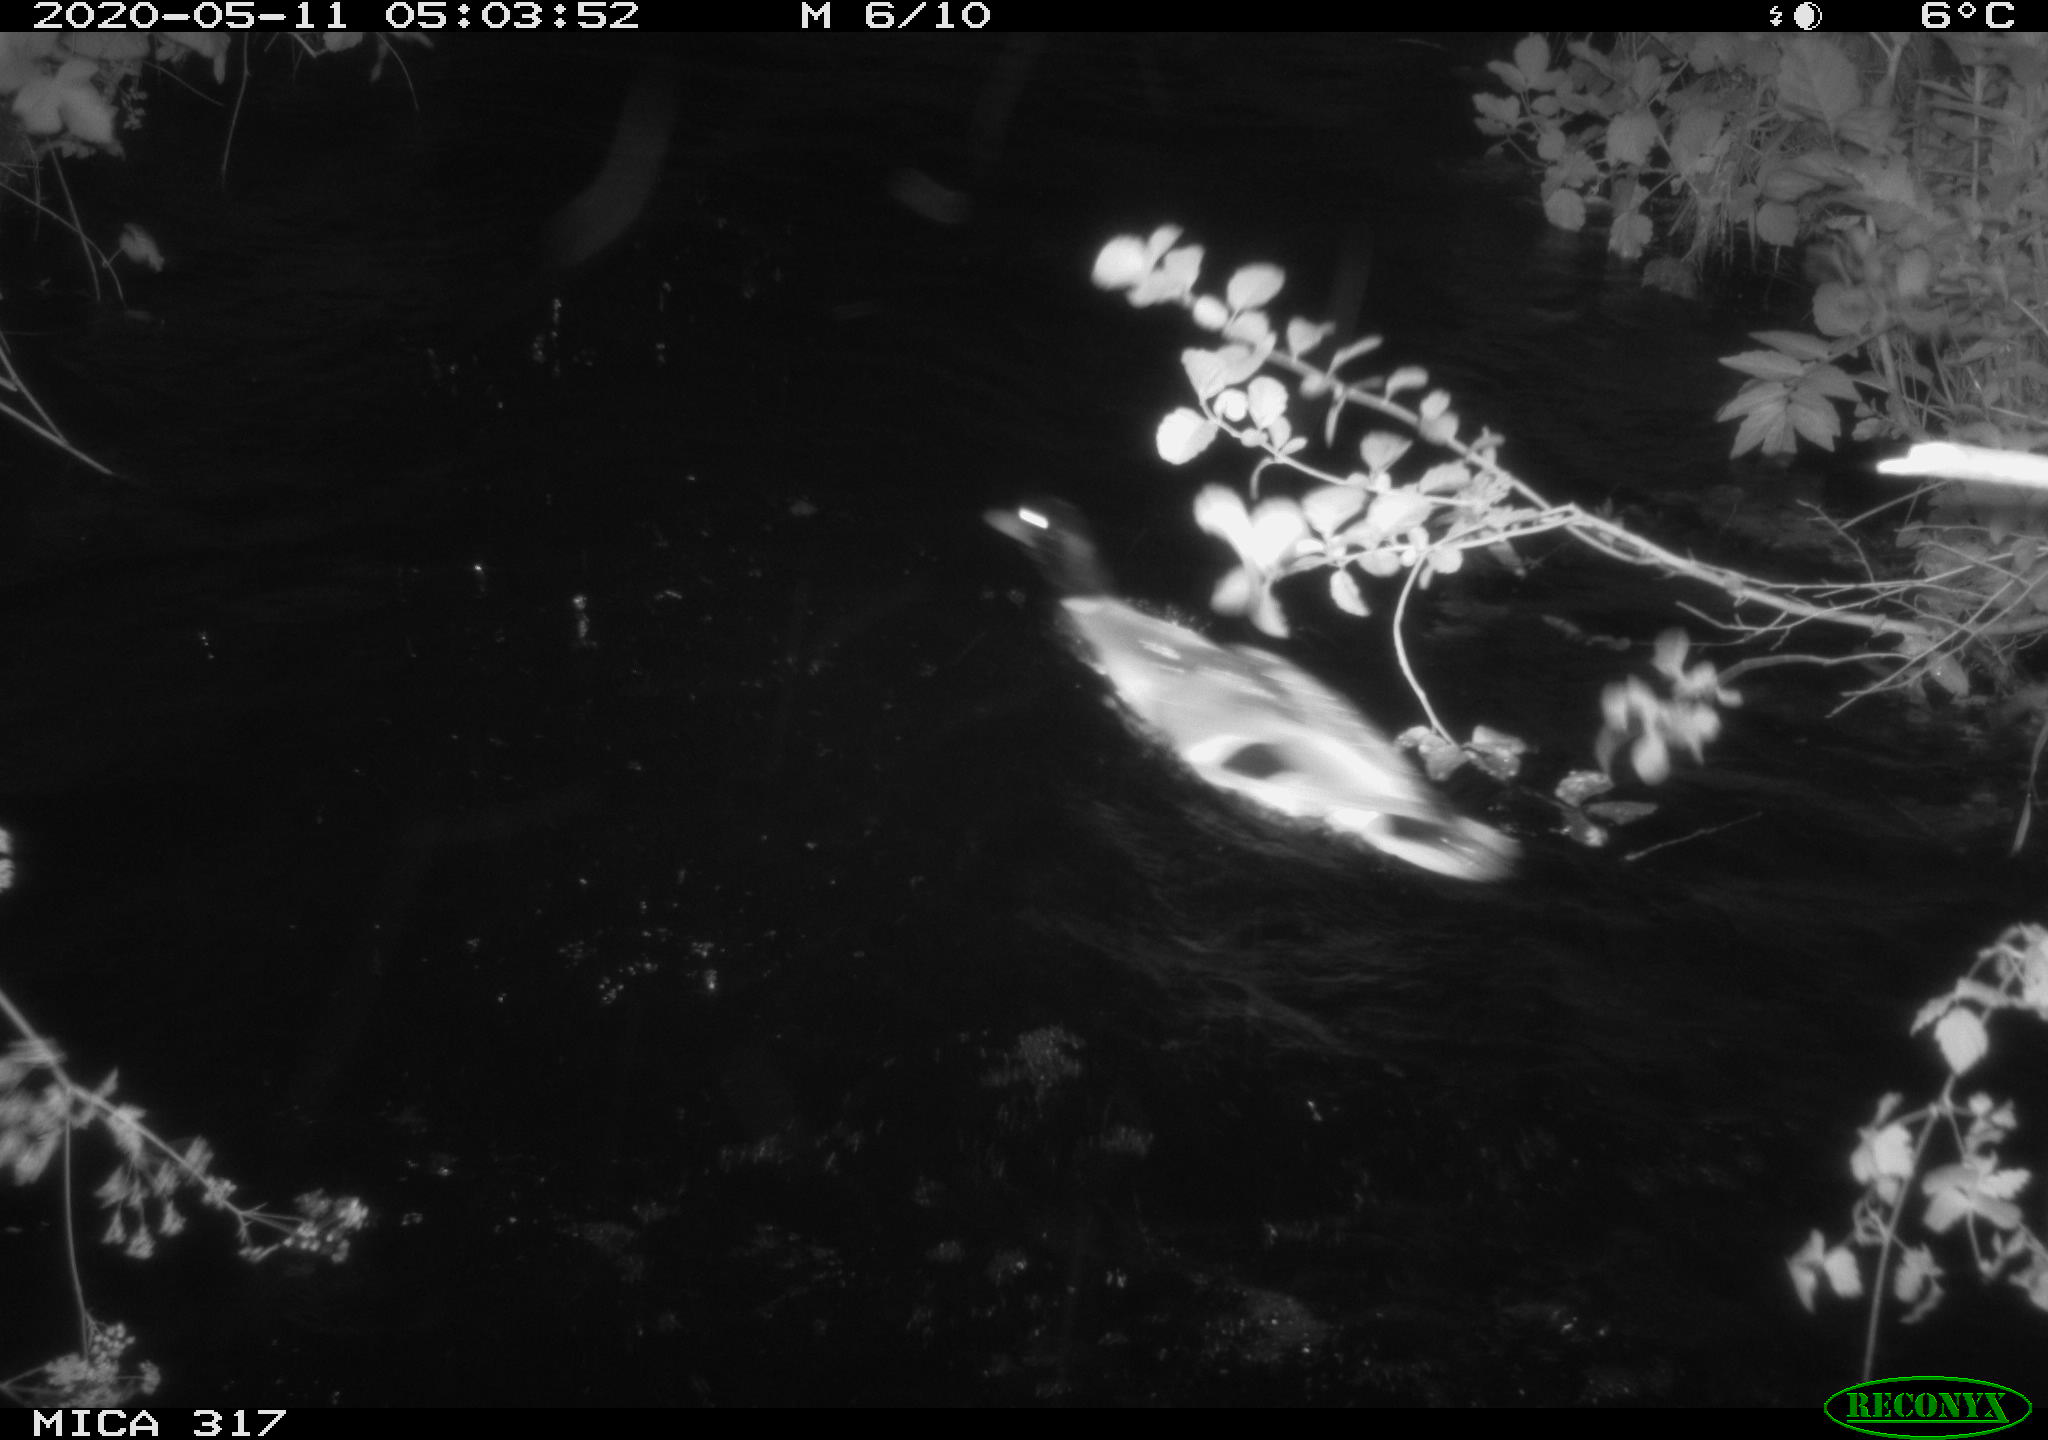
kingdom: Animalia
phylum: Chordata
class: Aves
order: Anseriformes
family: Anatidae
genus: Anas
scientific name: Anas platyrhynchos
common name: Mallard
